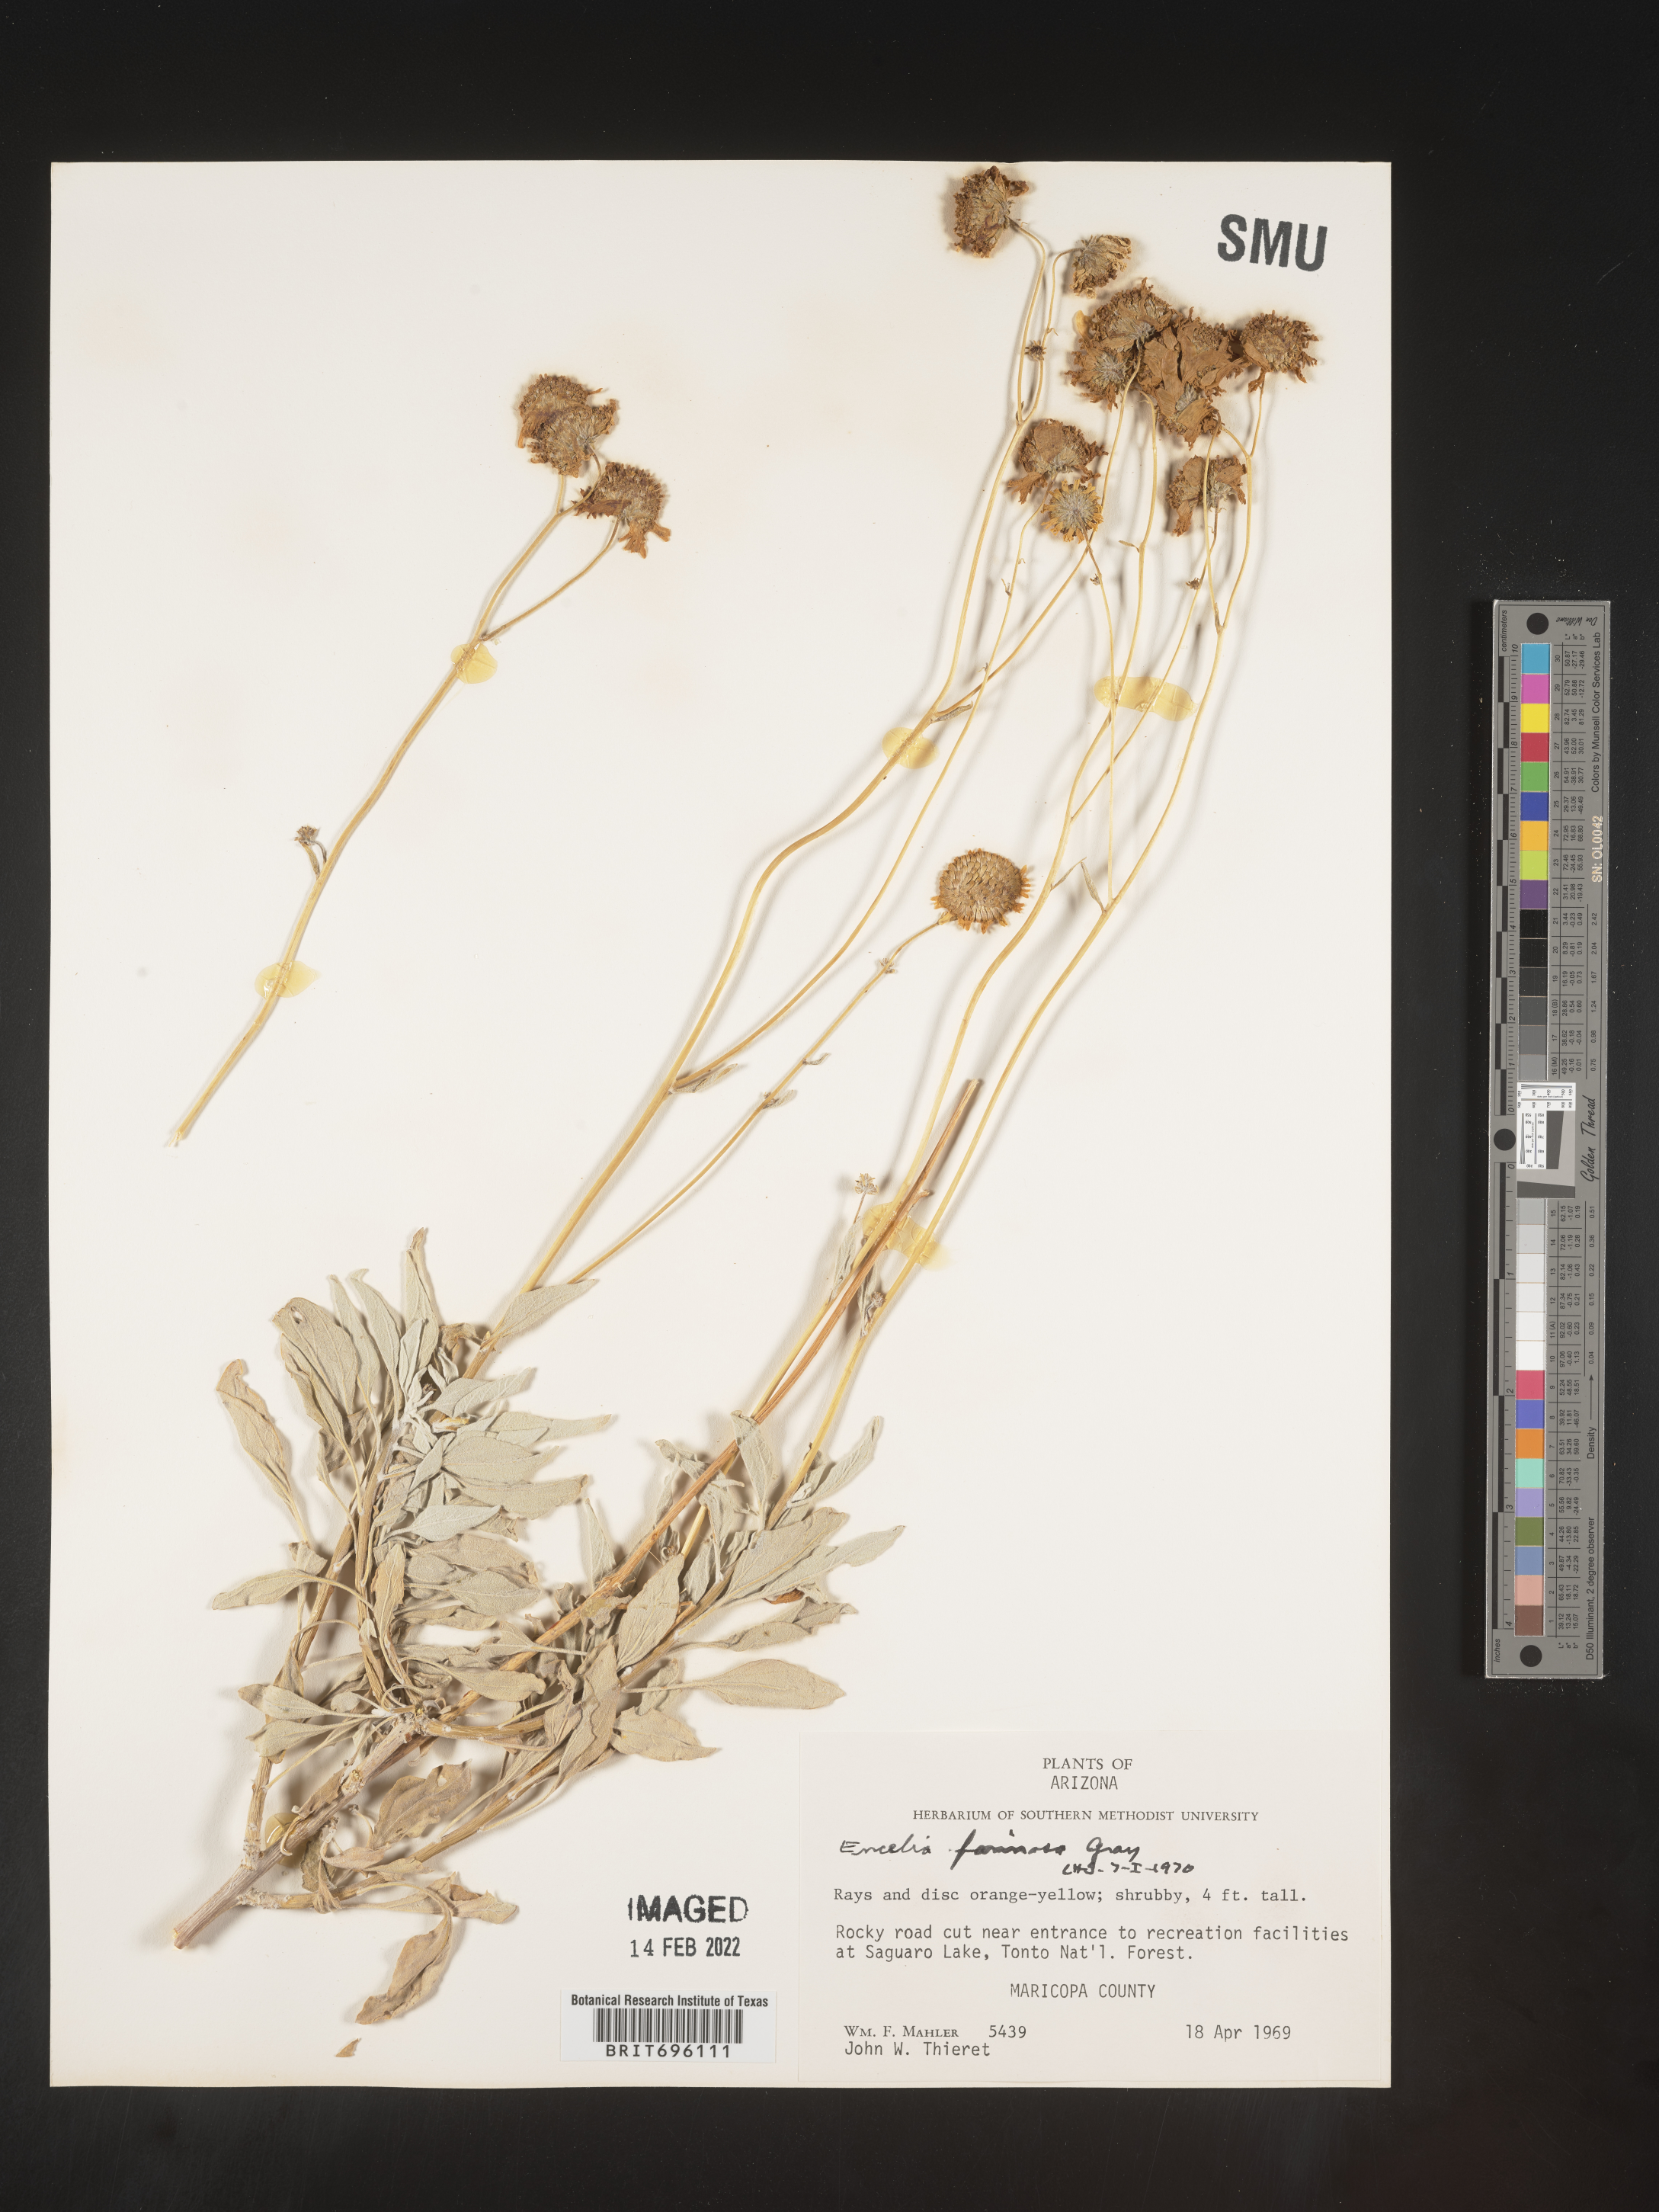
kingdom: Plantae
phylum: Tracheophyta
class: Magnoliopsida
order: Asterales
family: Asteraceae
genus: Encelia
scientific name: Encelia farinosa
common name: Brittlebush
